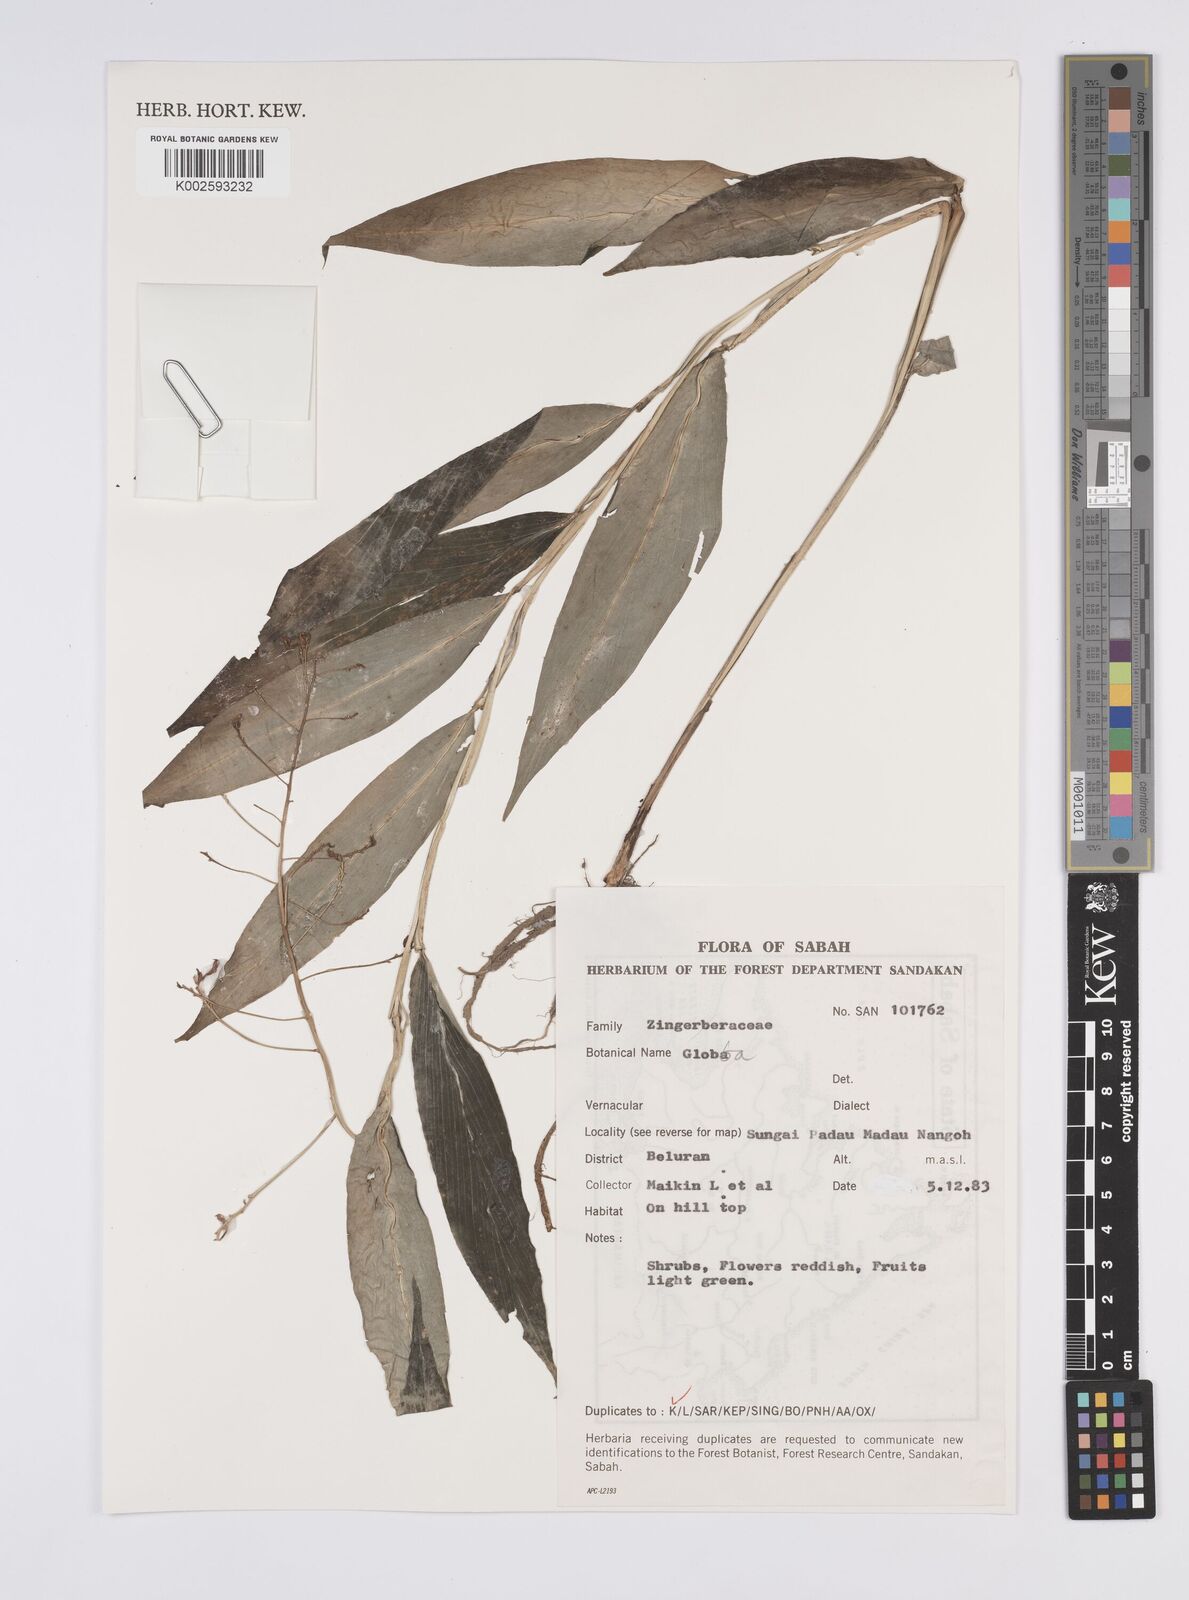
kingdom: Plantae
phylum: Tracheophyta
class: Liliopsida
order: Zingiberales
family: Zingiberaceae
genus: Globba
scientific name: Globba
